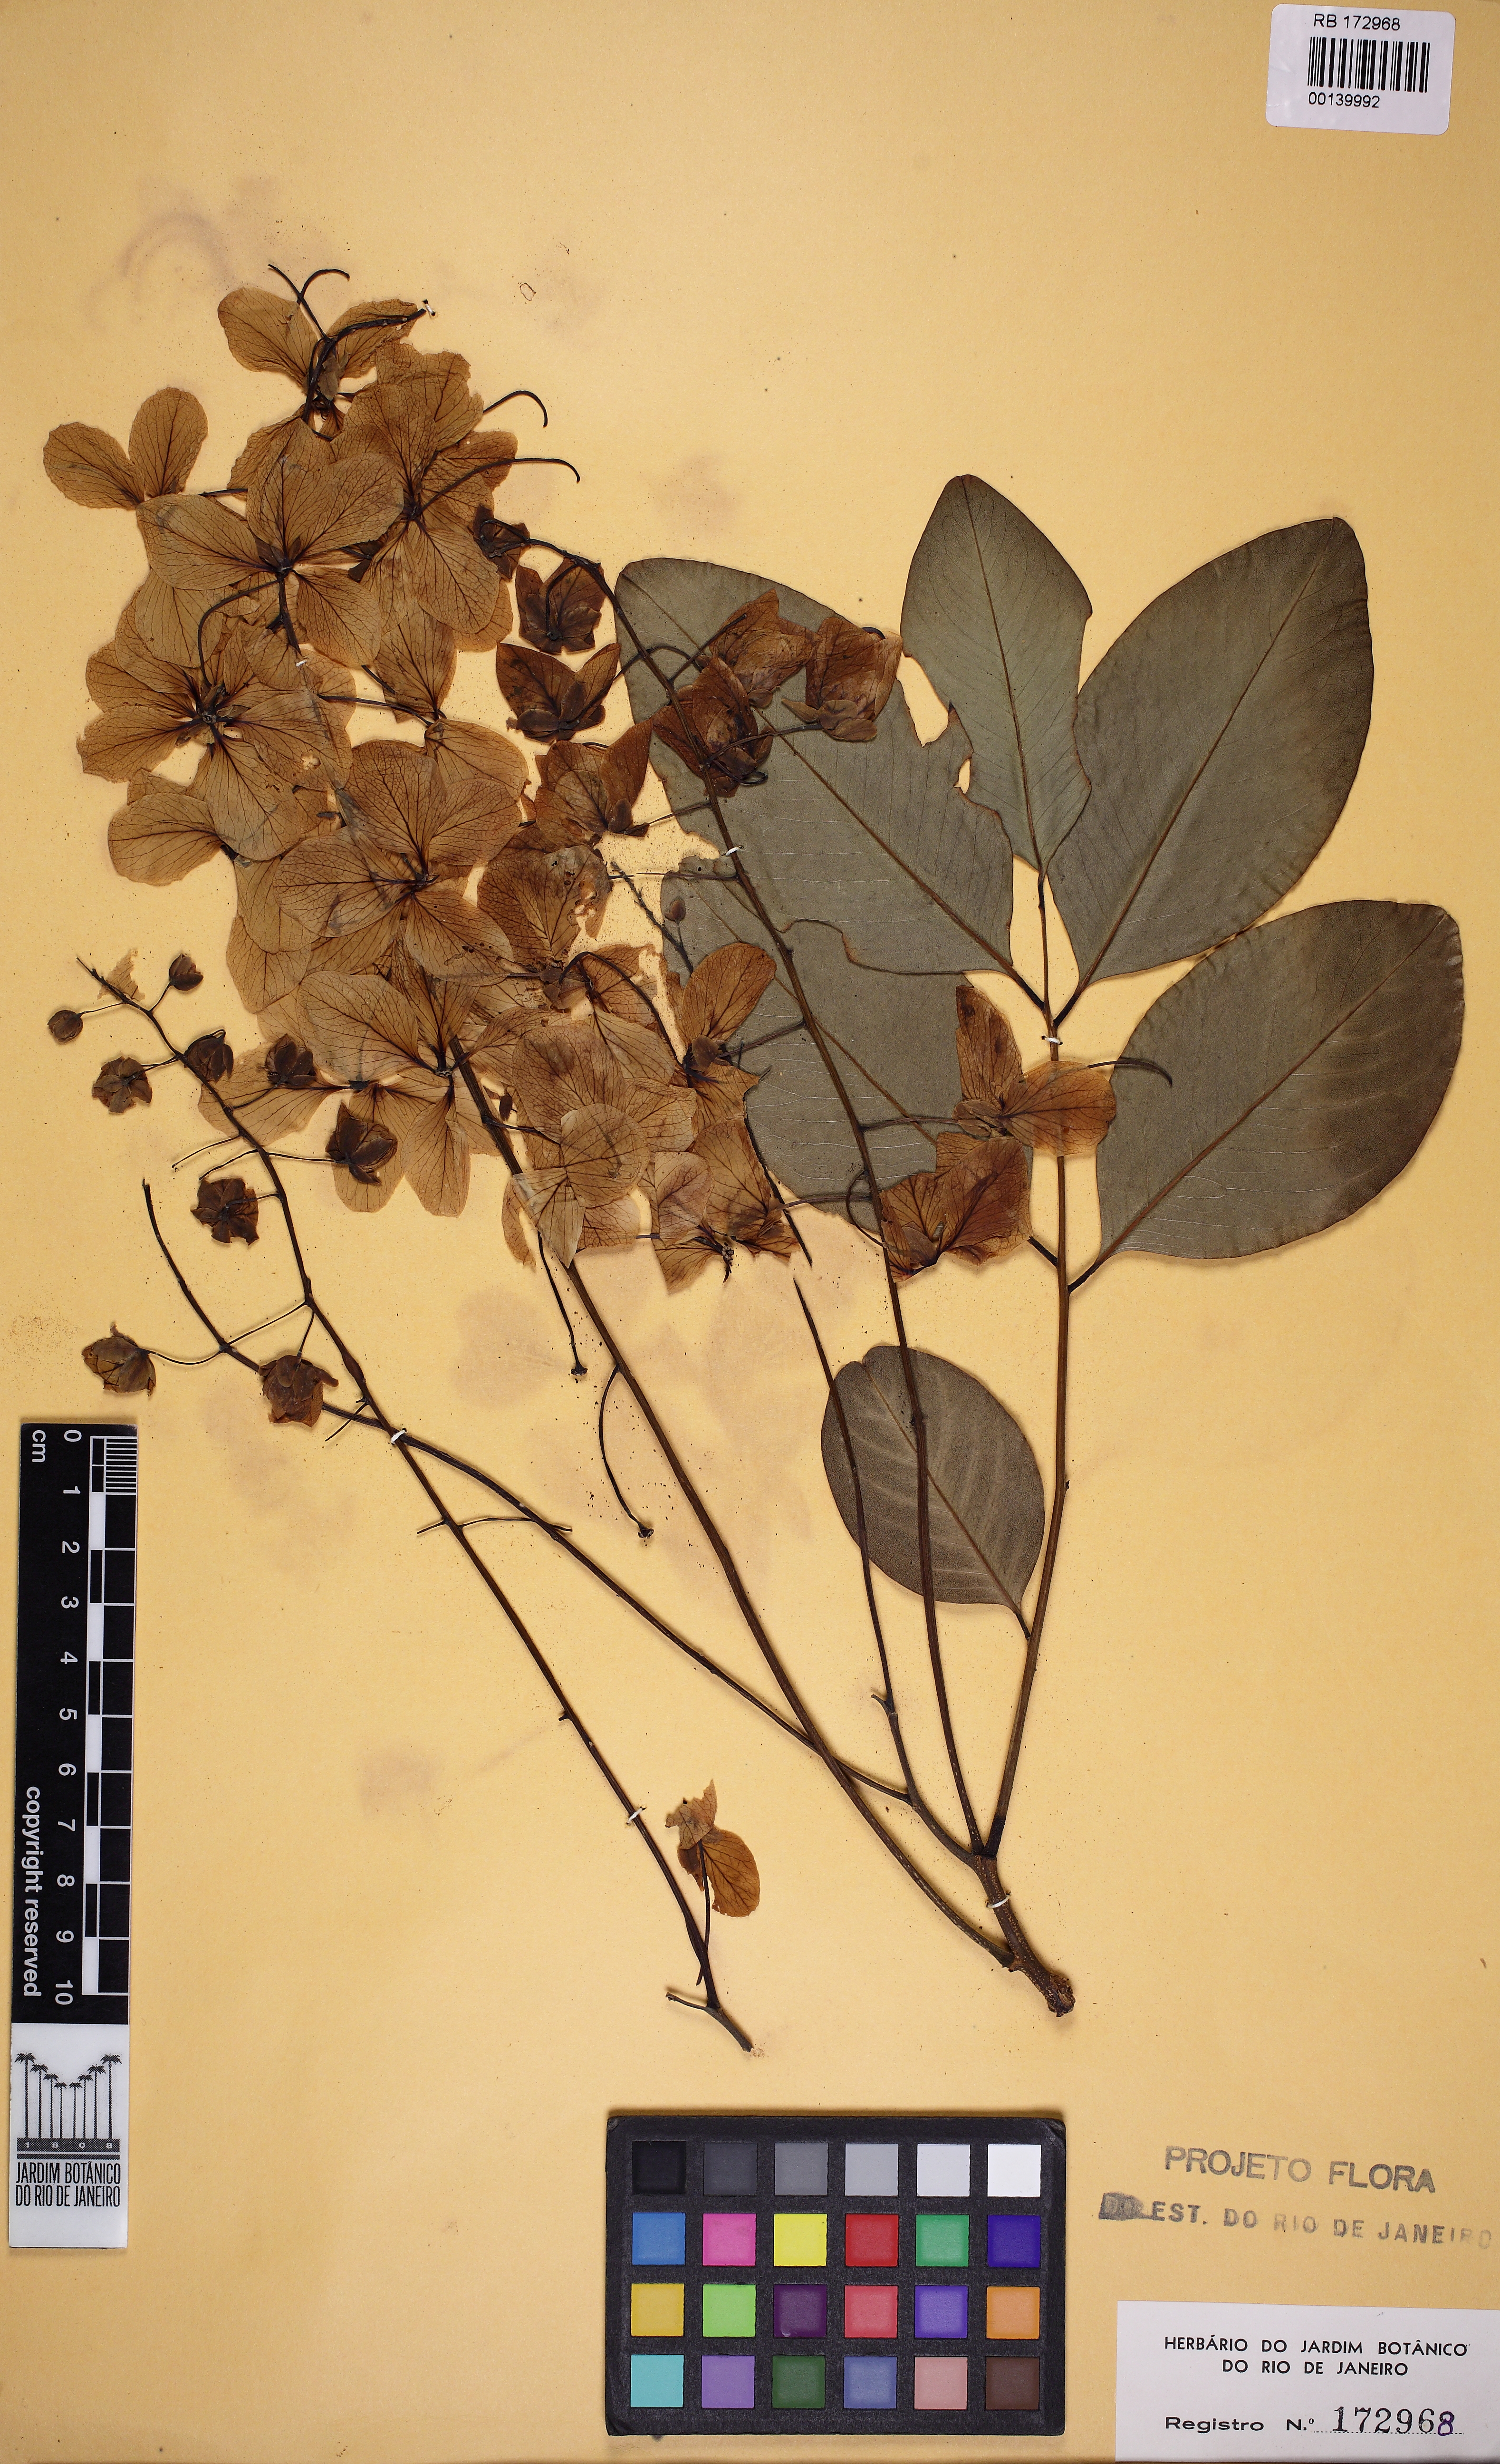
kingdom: Plantae
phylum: Tracheophyta
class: Magnoliopsida
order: Fabales
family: Fabaceae
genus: Cassia
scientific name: Cassia fistula
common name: Golden shower
